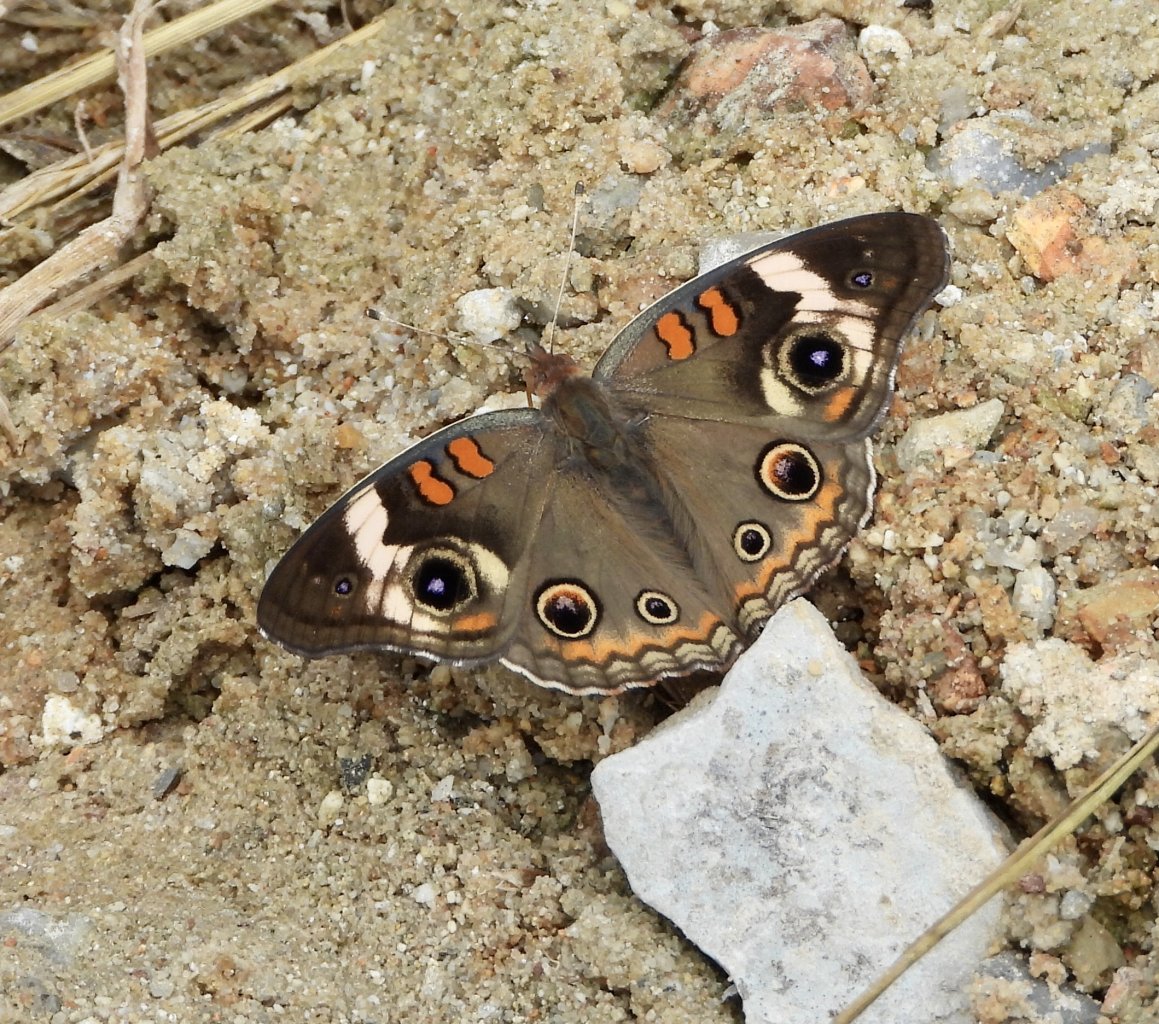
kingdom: Animalia
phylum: Arthropoda
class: Insecta
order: Lepidoptera
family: Nymphalidae
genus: Junonia
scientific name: Junonia coenia
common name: Common Buckeye
